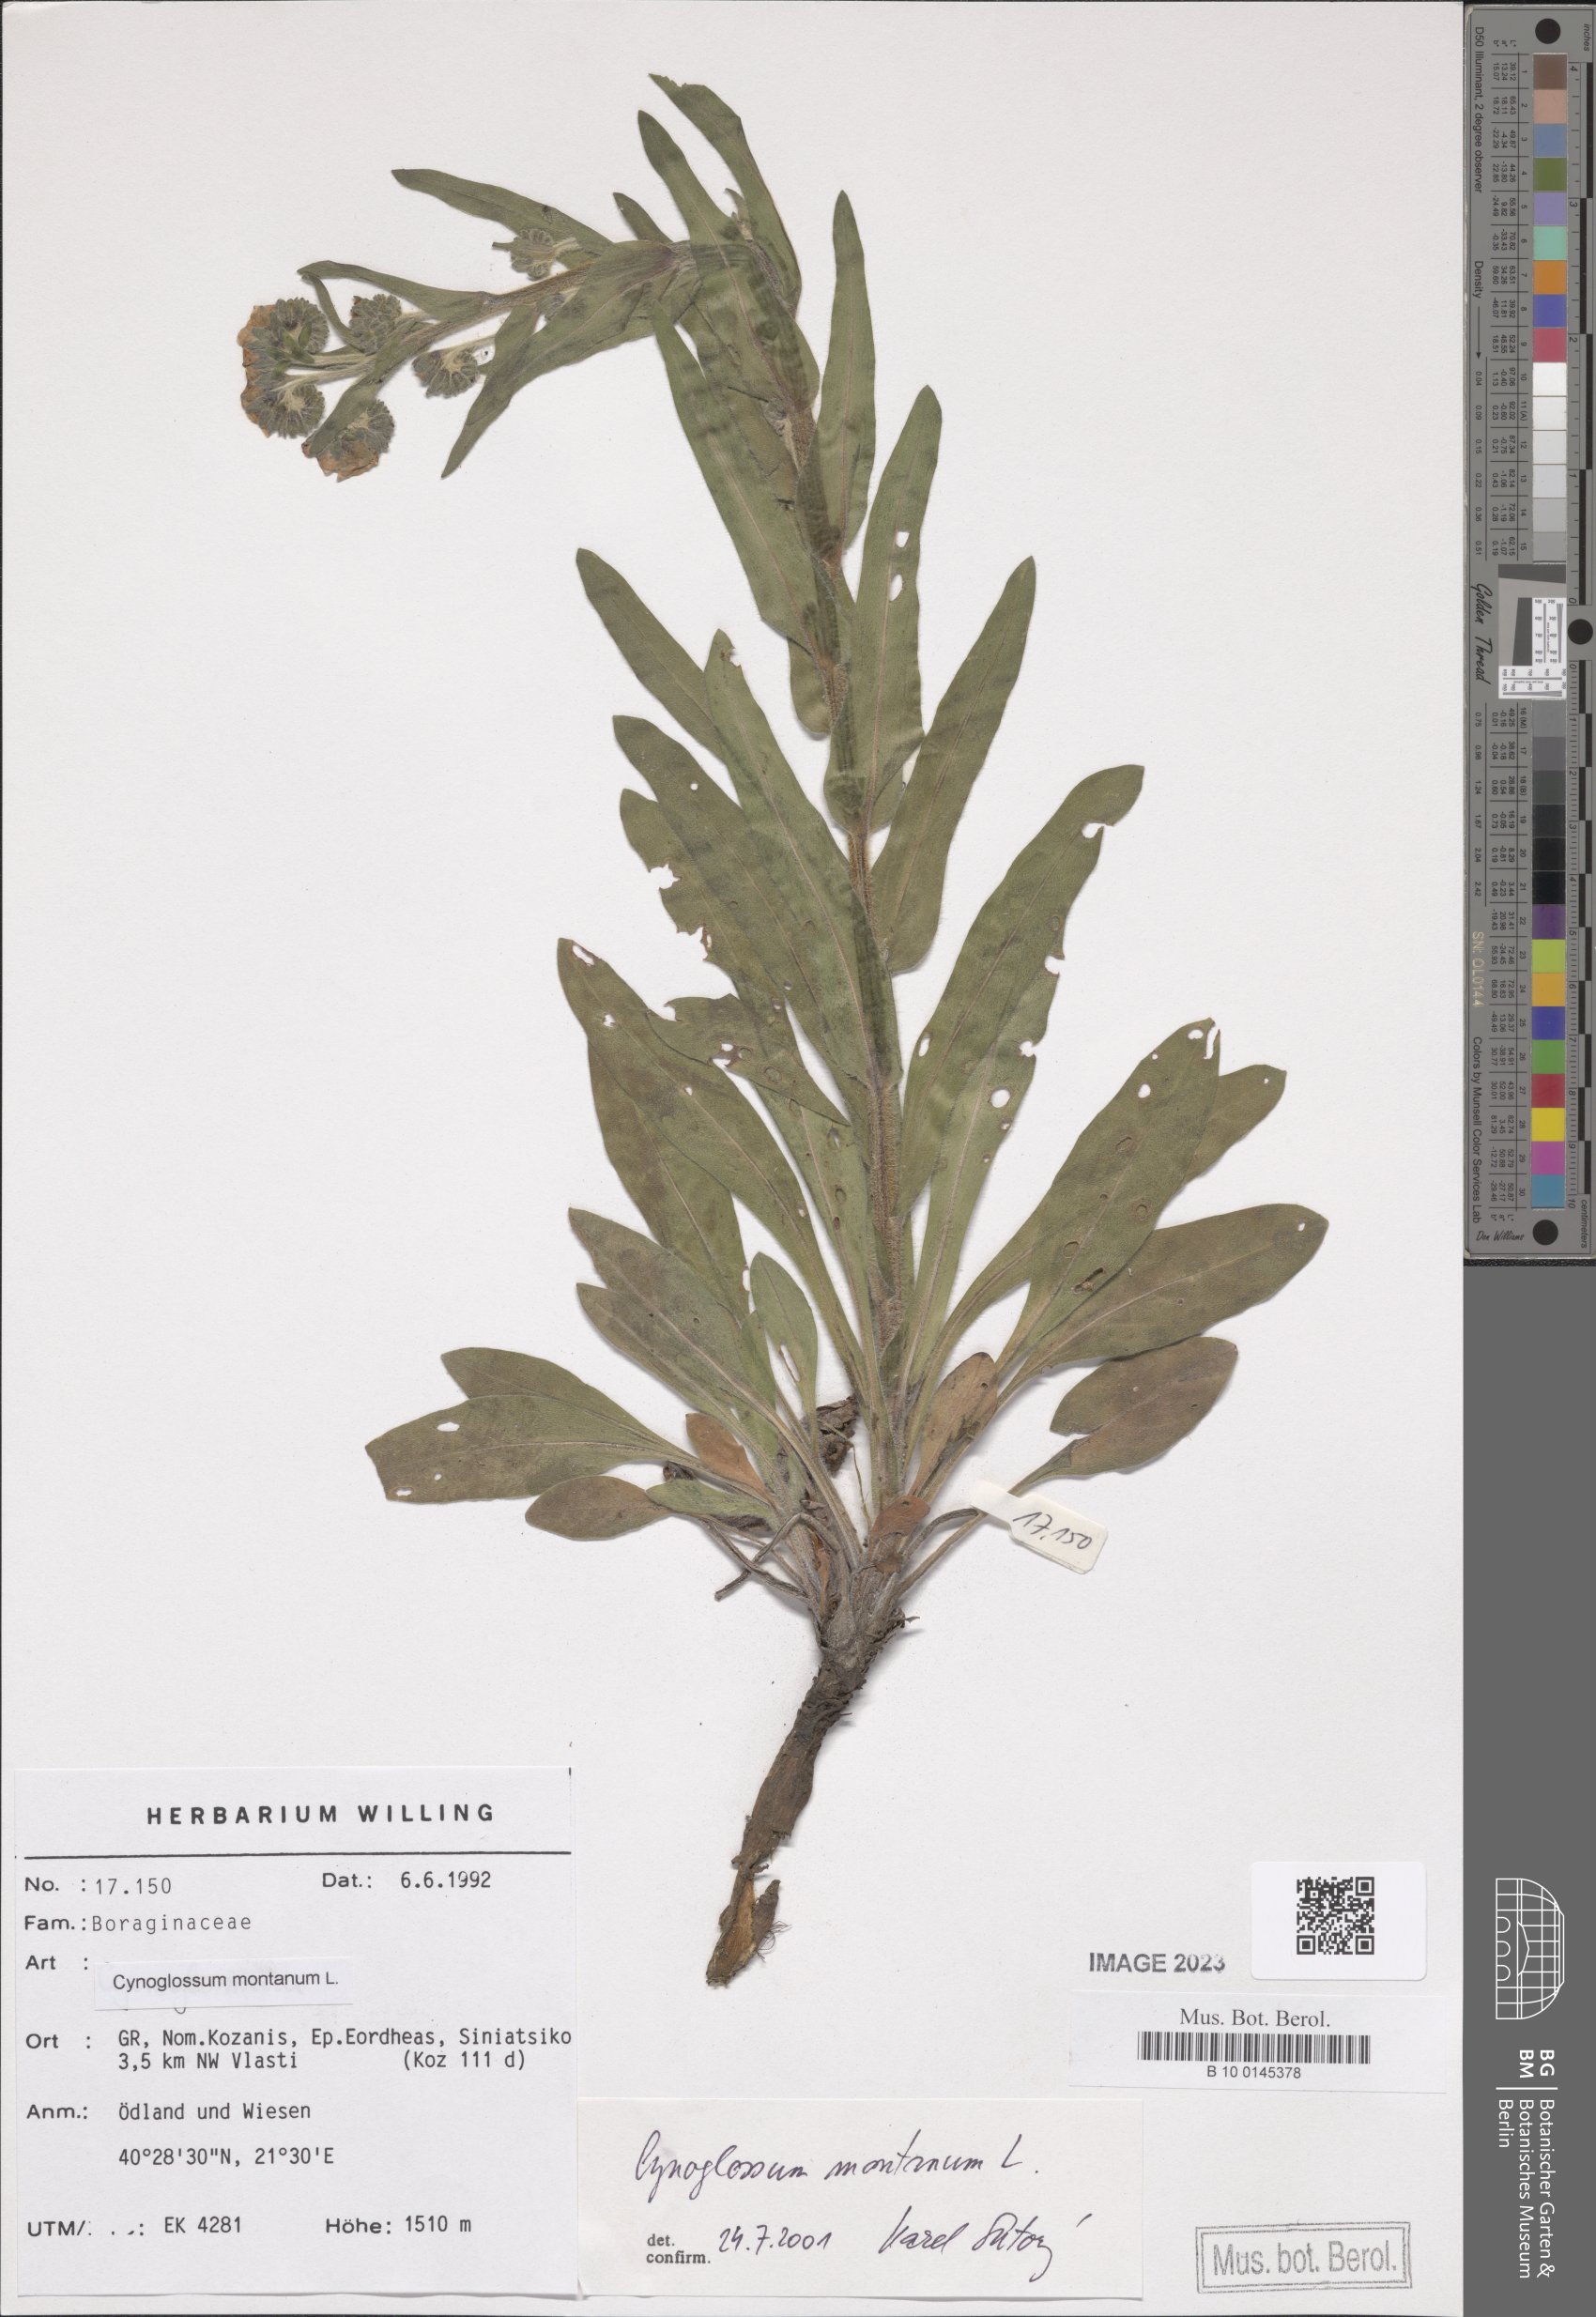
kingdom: Plantae
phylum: Tracheophyta
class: Magnoliopsida
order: Boraginales
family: Boraginaceae
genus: Cynoglossum
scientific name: Cynoglossum montanum
